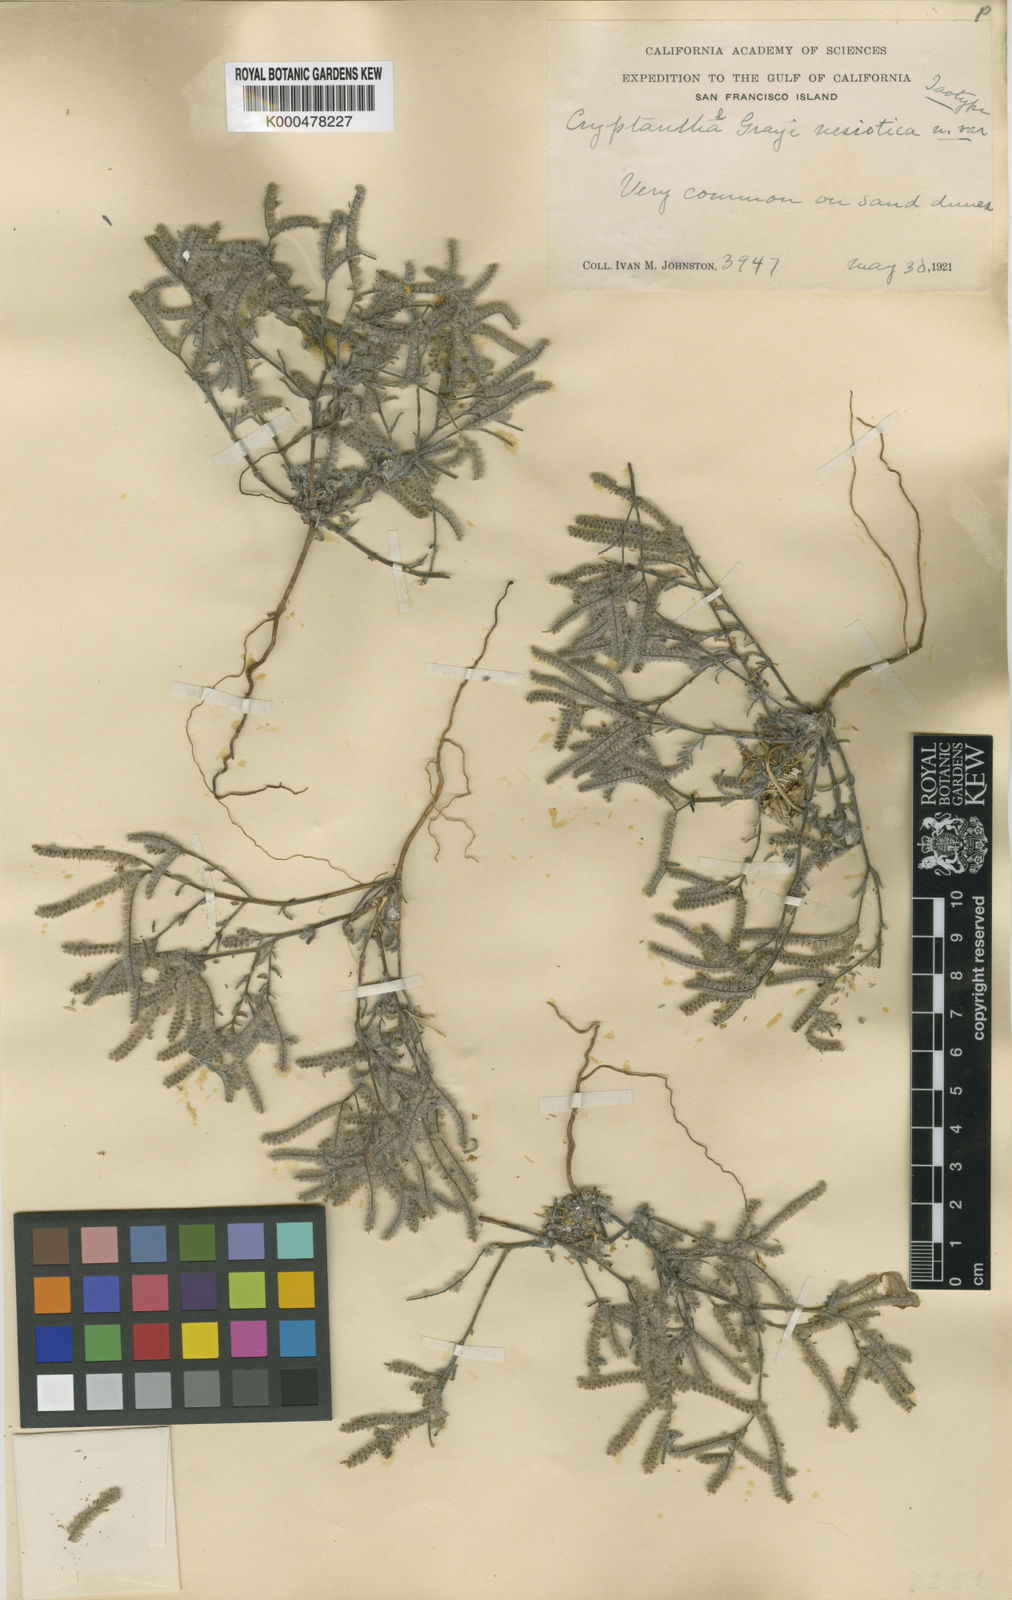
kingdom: Plantae
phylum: Tracheophyta
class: Magnoliopsida
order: Boraginales
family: Boraginaceae
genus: Johnstonella
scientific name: Johnstonella grayi
